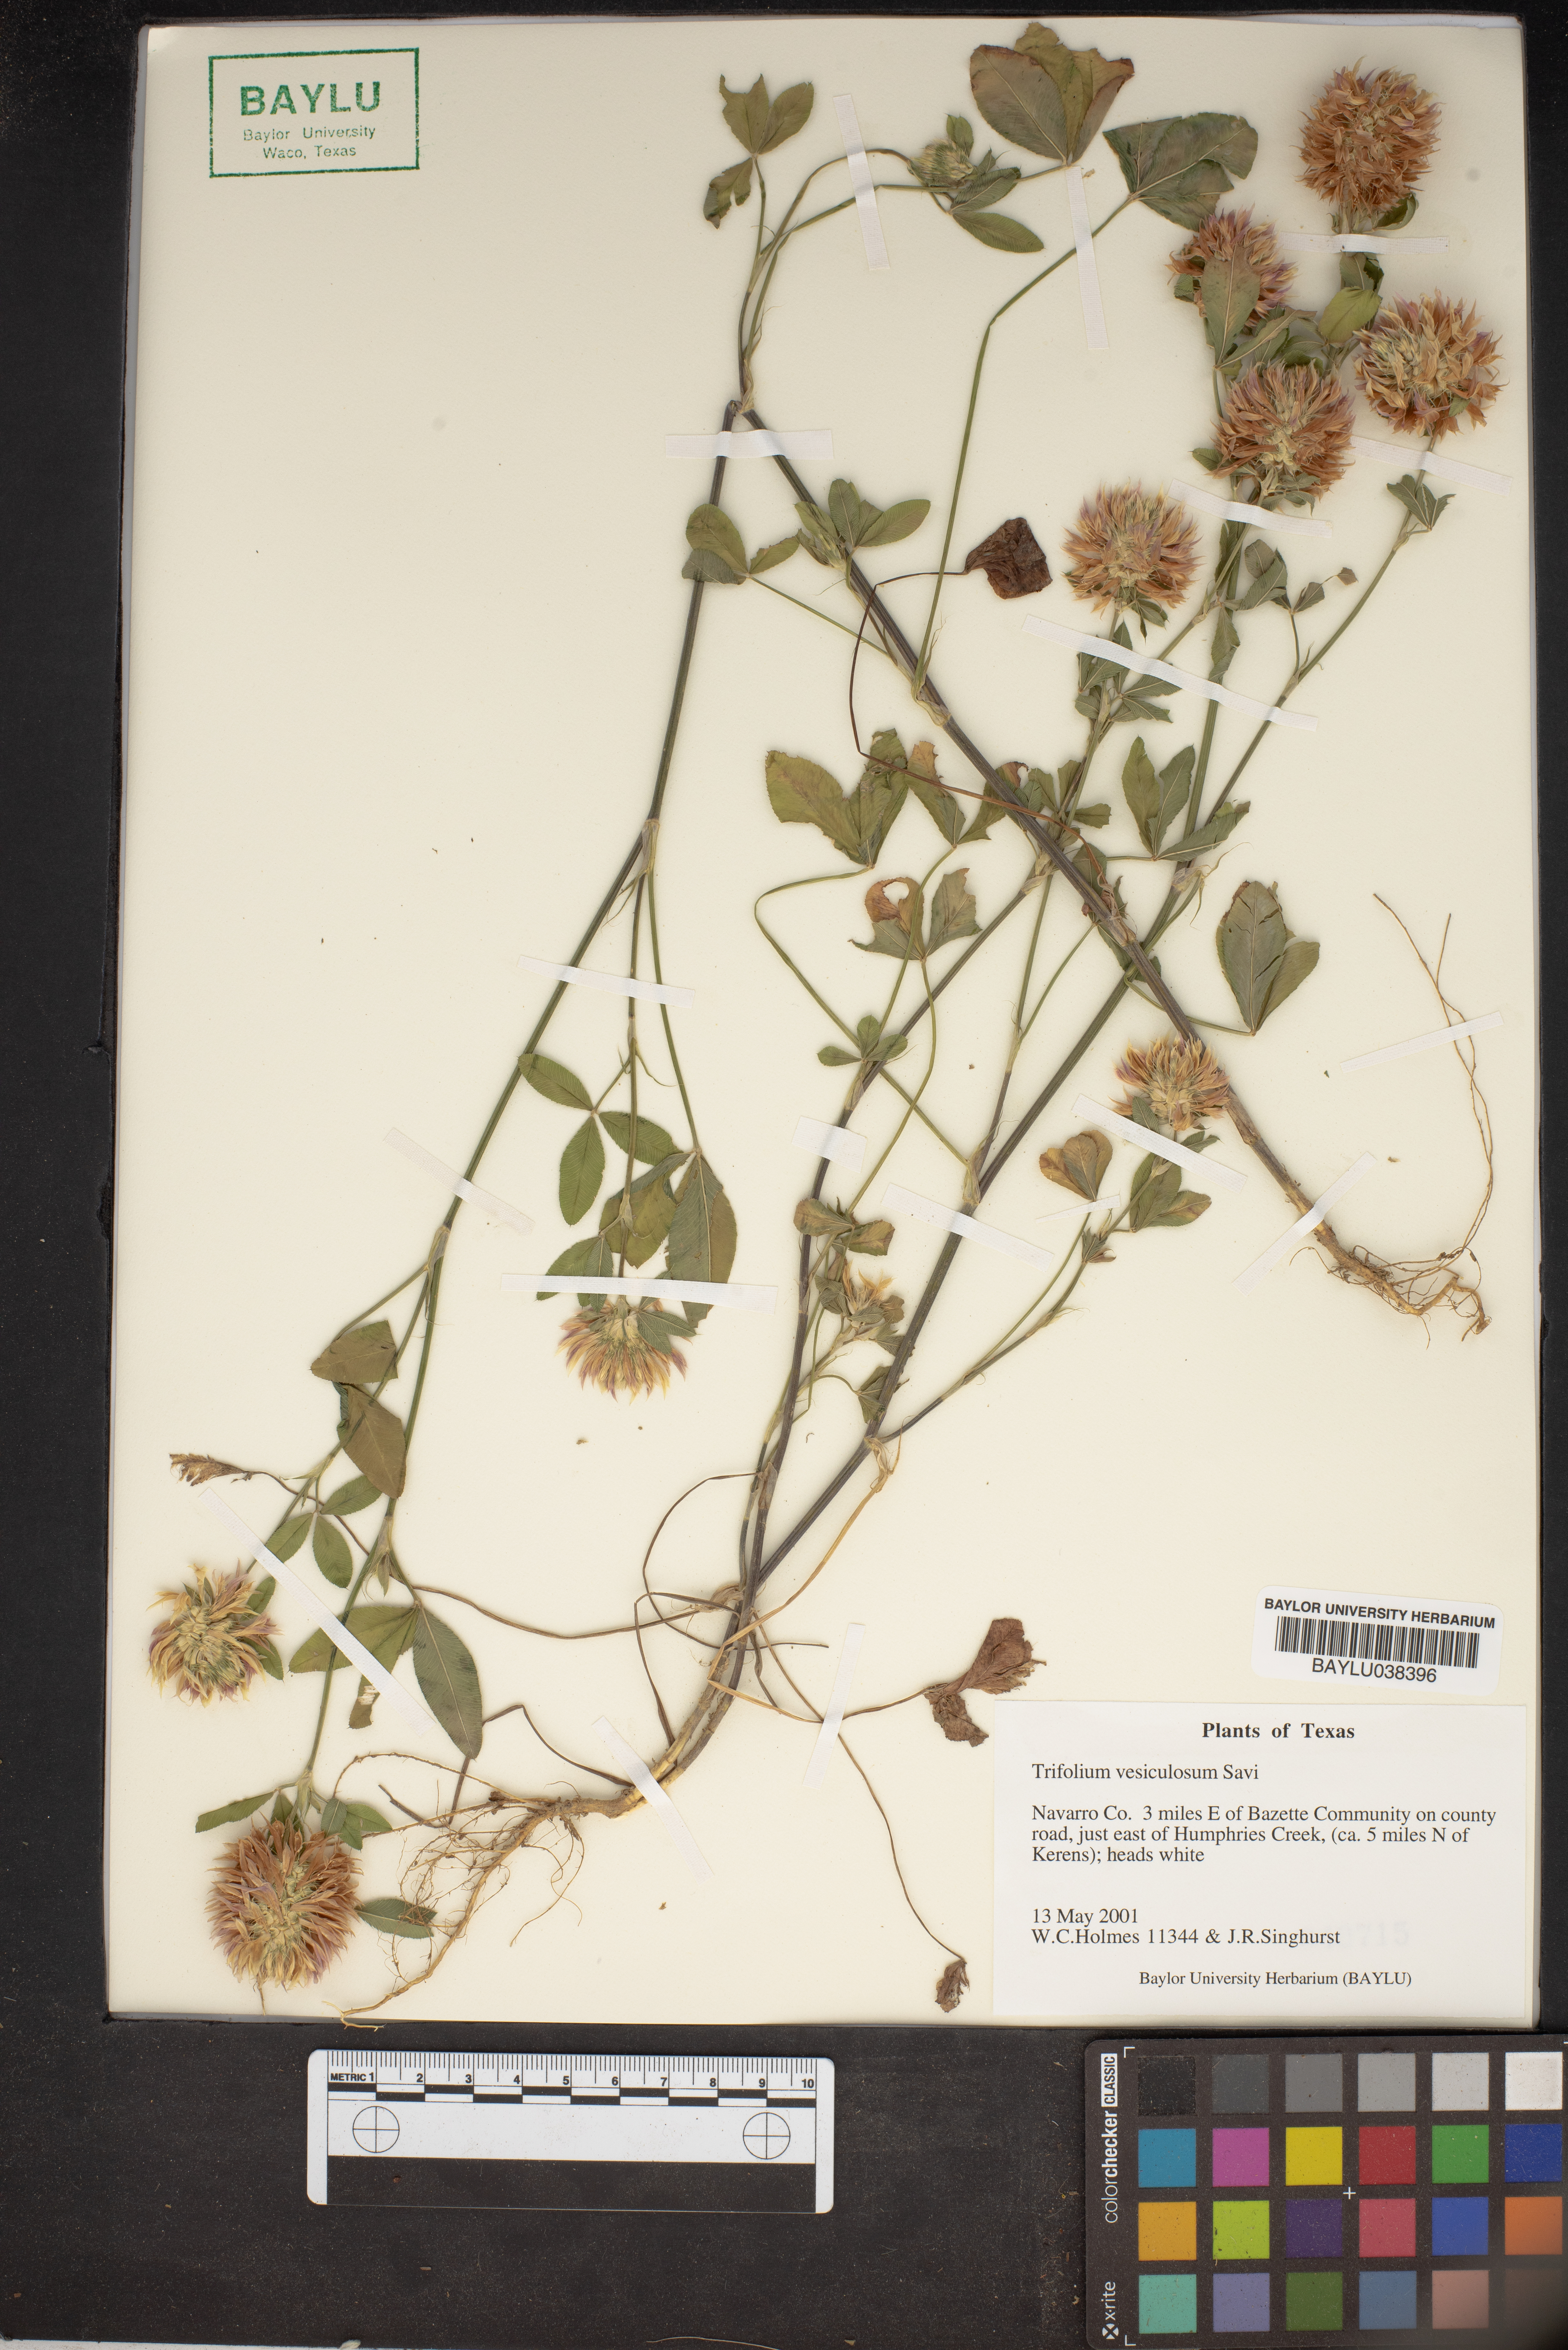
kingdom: Plantae
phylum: Tracheophyta
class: Magnoliopsida
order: Fabales
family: Fabaceae
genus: Trifolium
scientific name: Trifolium vesiculosum
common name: Arrowleaf clover
